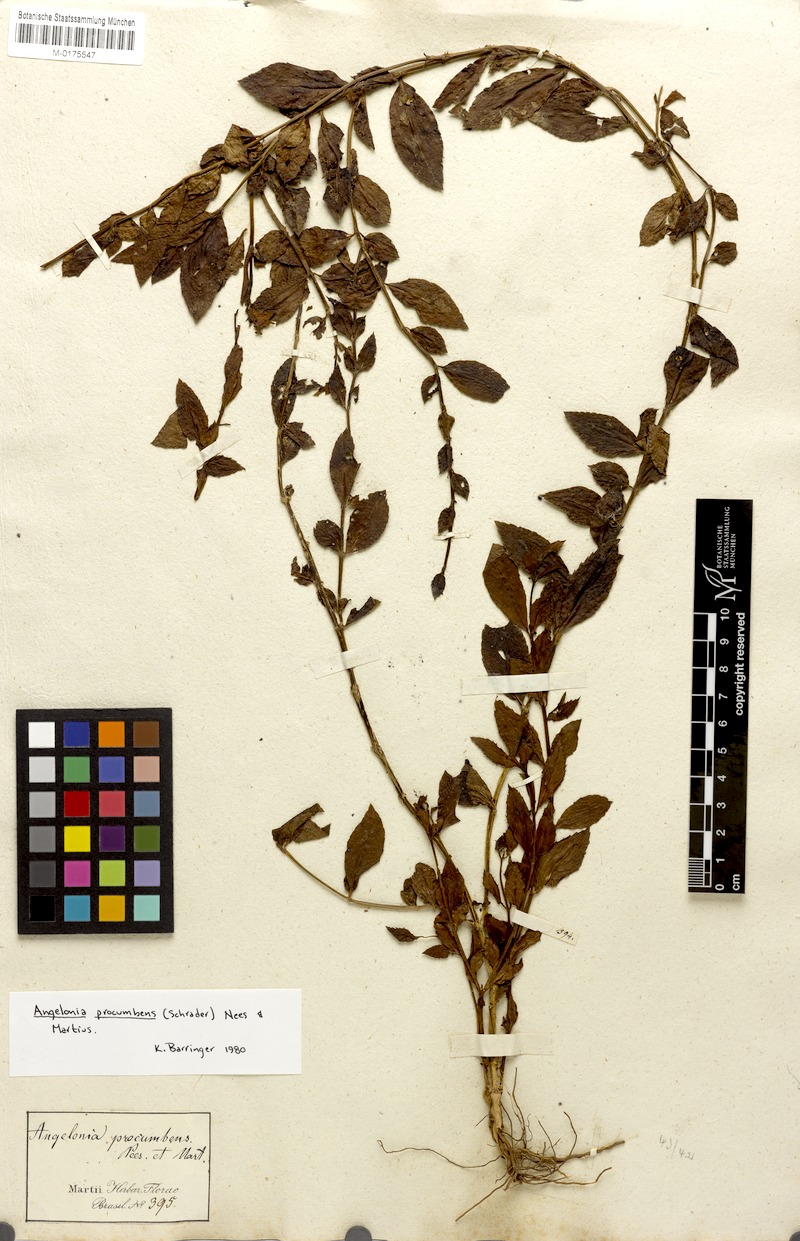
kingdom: Plantae
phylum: Tracheophyta
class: Magnoliopsida
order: Lamiales
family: Plantaginaceae
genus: Angelonia
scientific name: Angelonia procumbens
